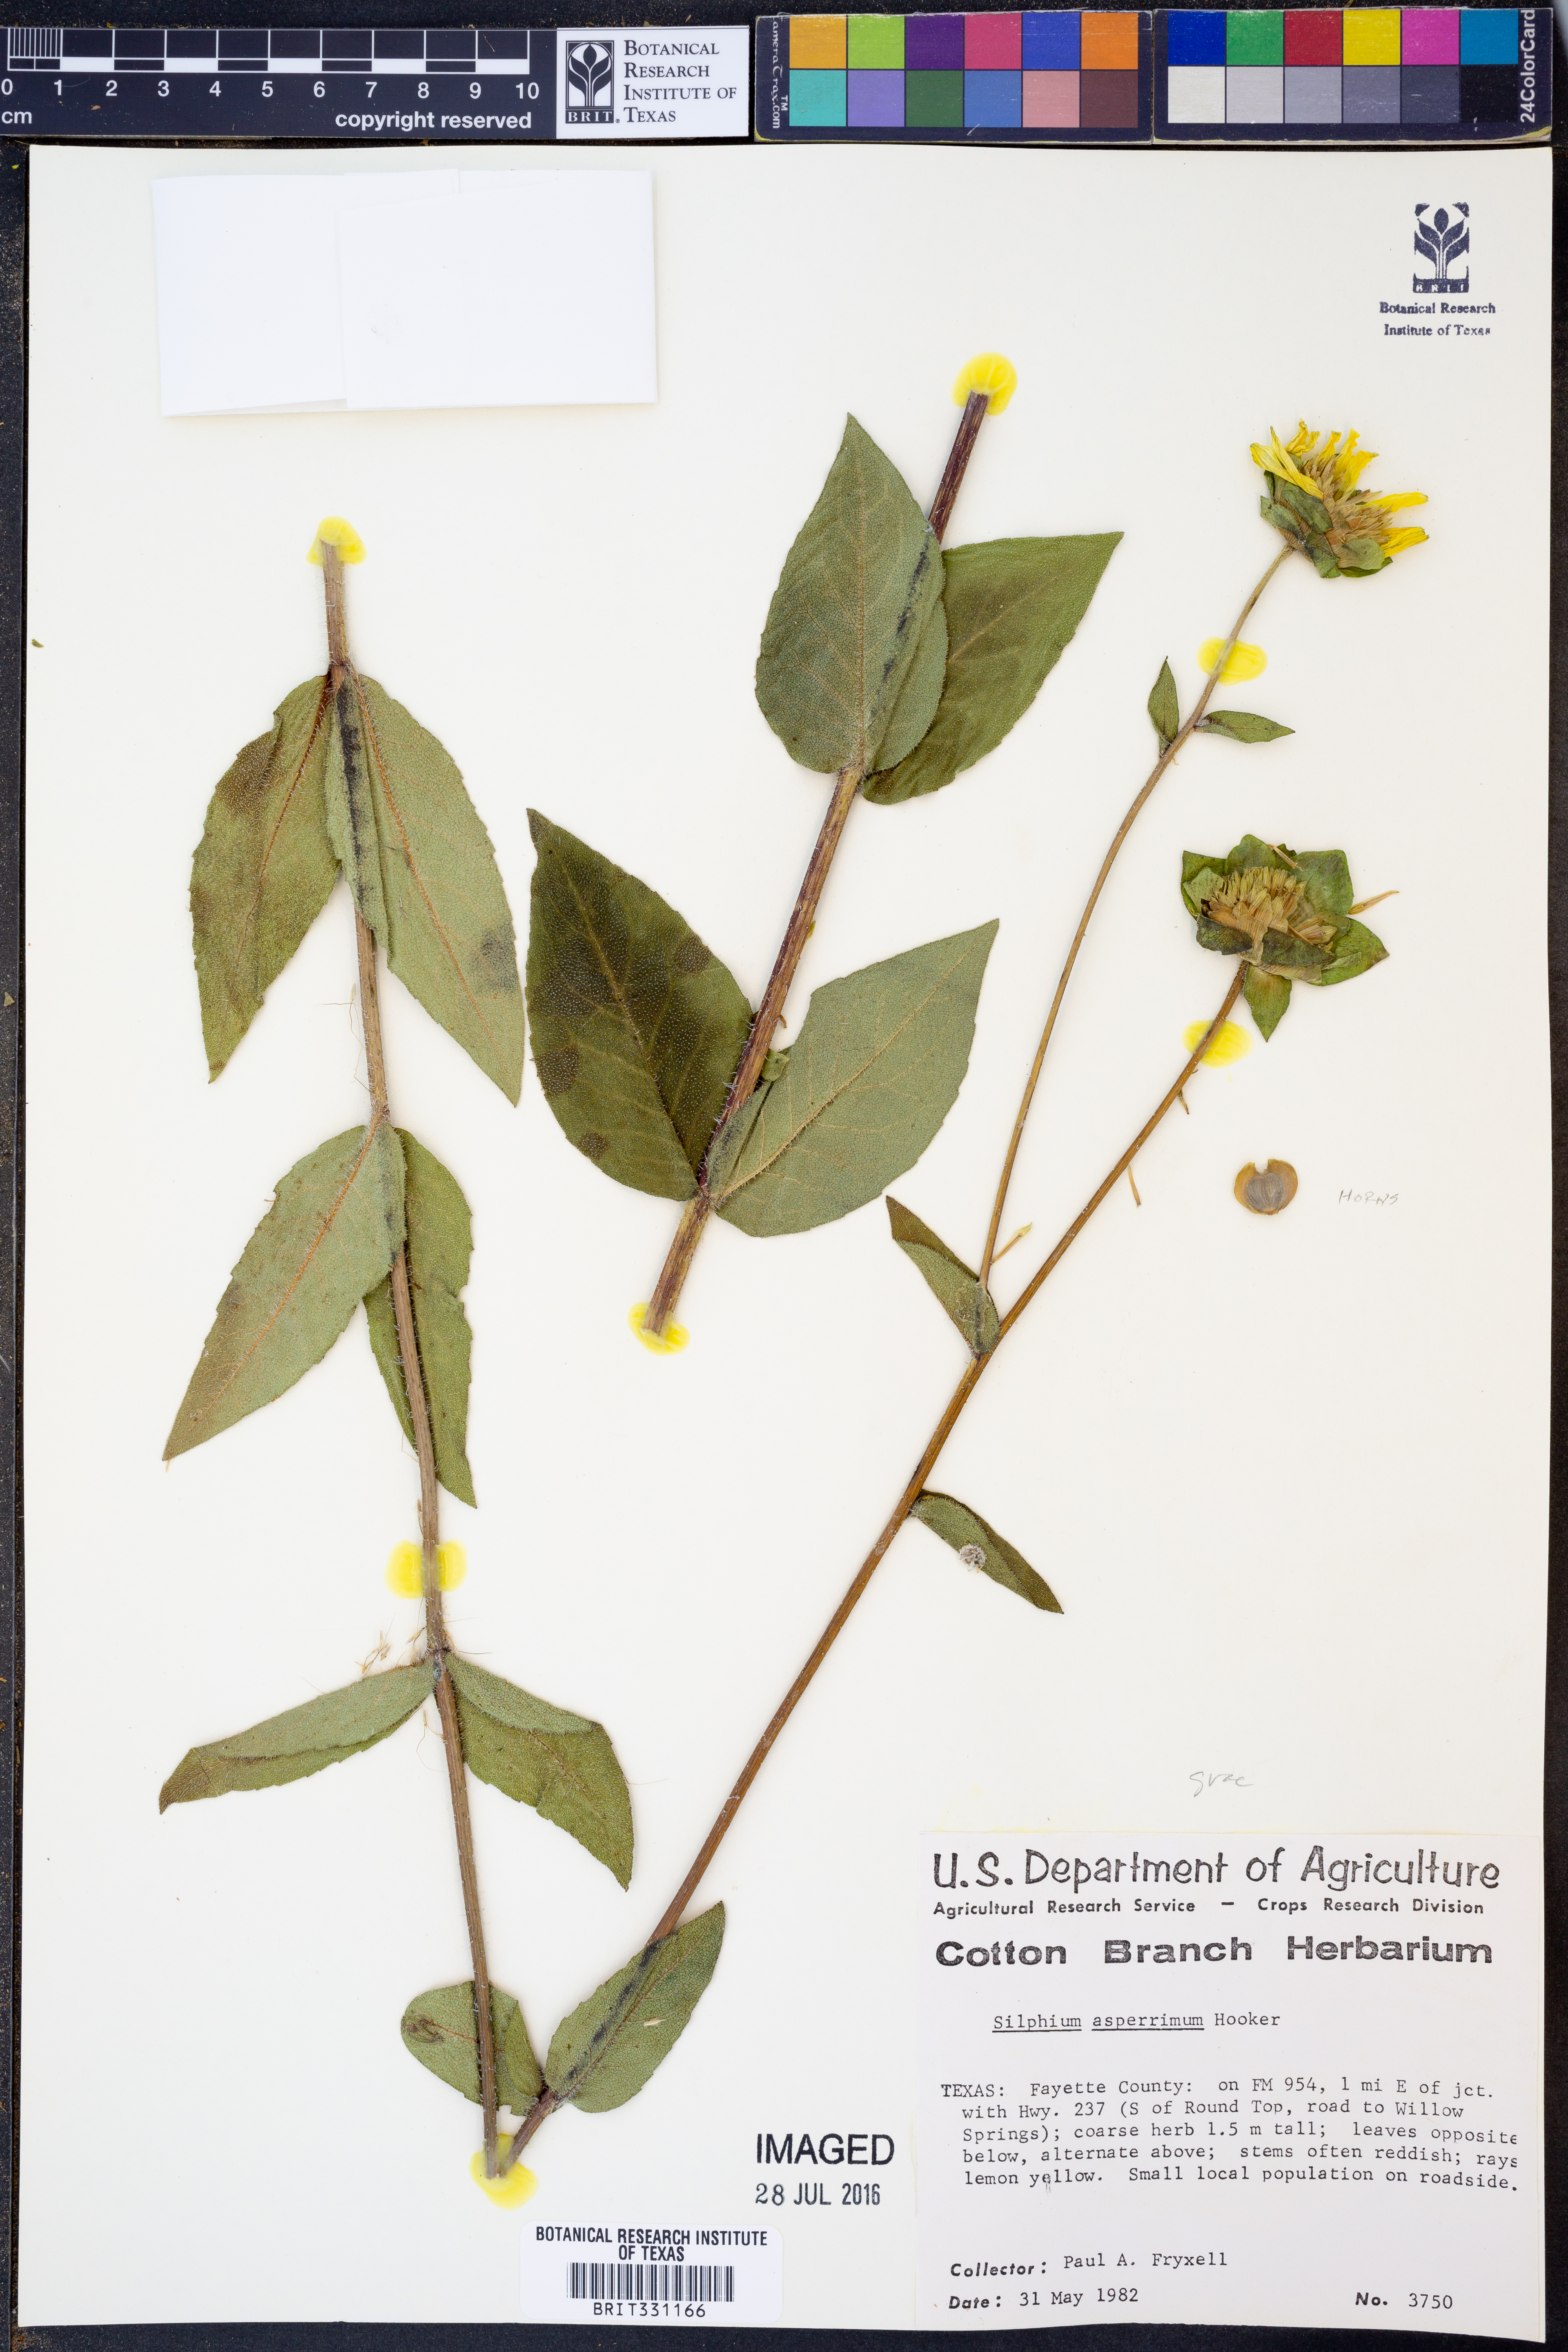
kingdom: Plantae
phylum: Tracheophyta
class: Magnoliopsida
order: Asterales
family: Asteraceae
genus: Silphium
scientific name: Silphium asperrimum
